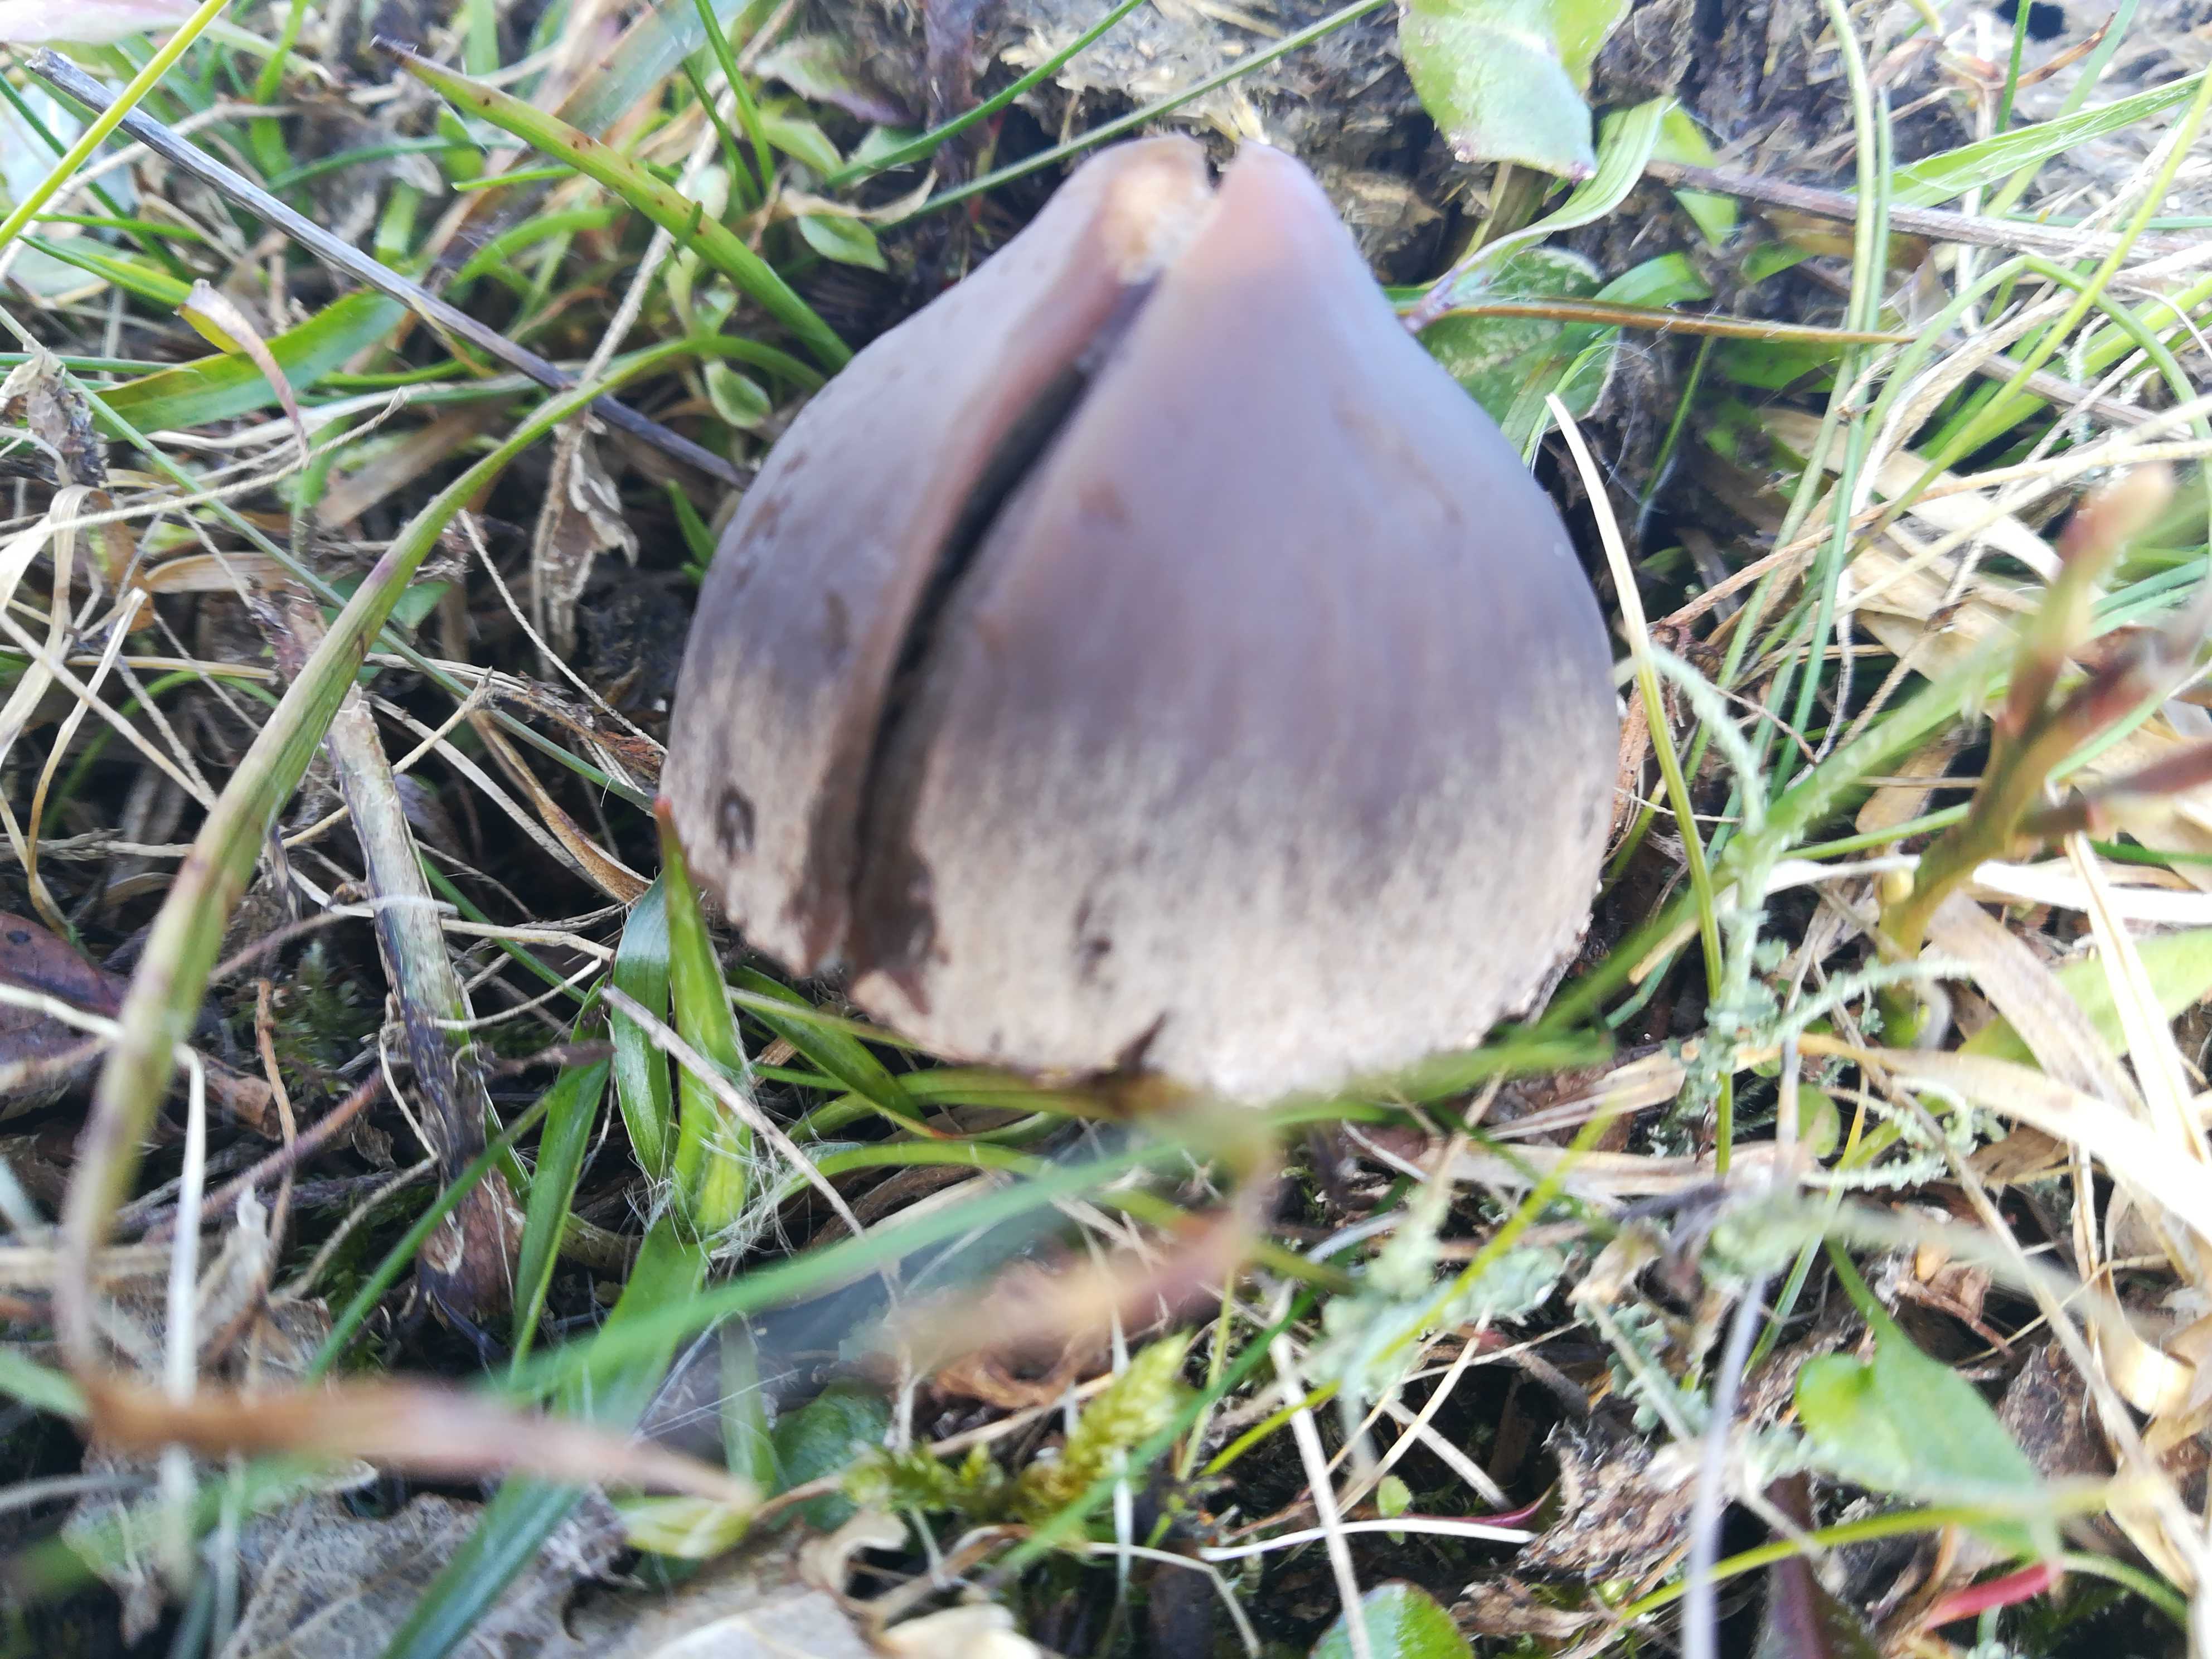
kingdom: Fungi
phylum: Basidiomycota
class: Agaricomycetes
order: Agaricales
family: Bolbitiaceae
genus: Panaeolus
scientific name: Panaeolus
